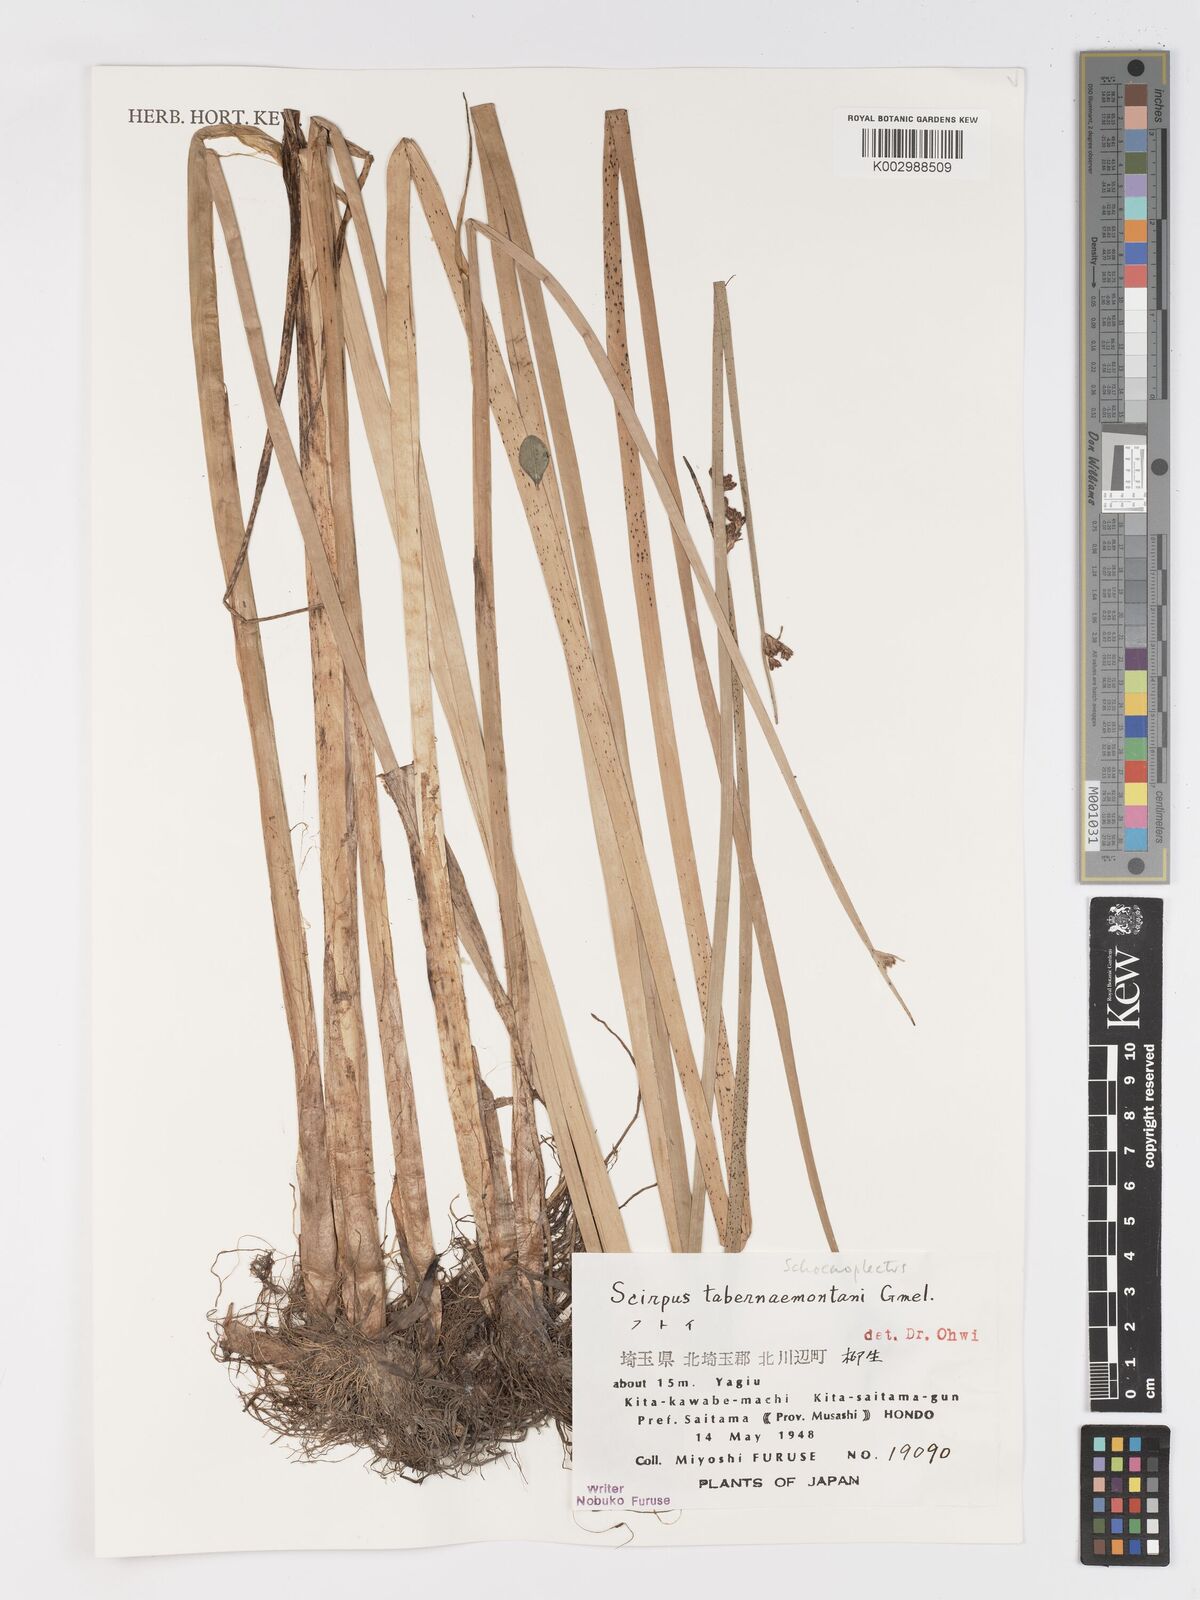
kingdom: Plantae
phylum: Tracheophyta
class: Liliopsida
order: Poales
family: Cyperaceae
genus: Schoenoplectus
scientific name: Schoenoplectus tabernaemontani
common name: Grey club-rush
